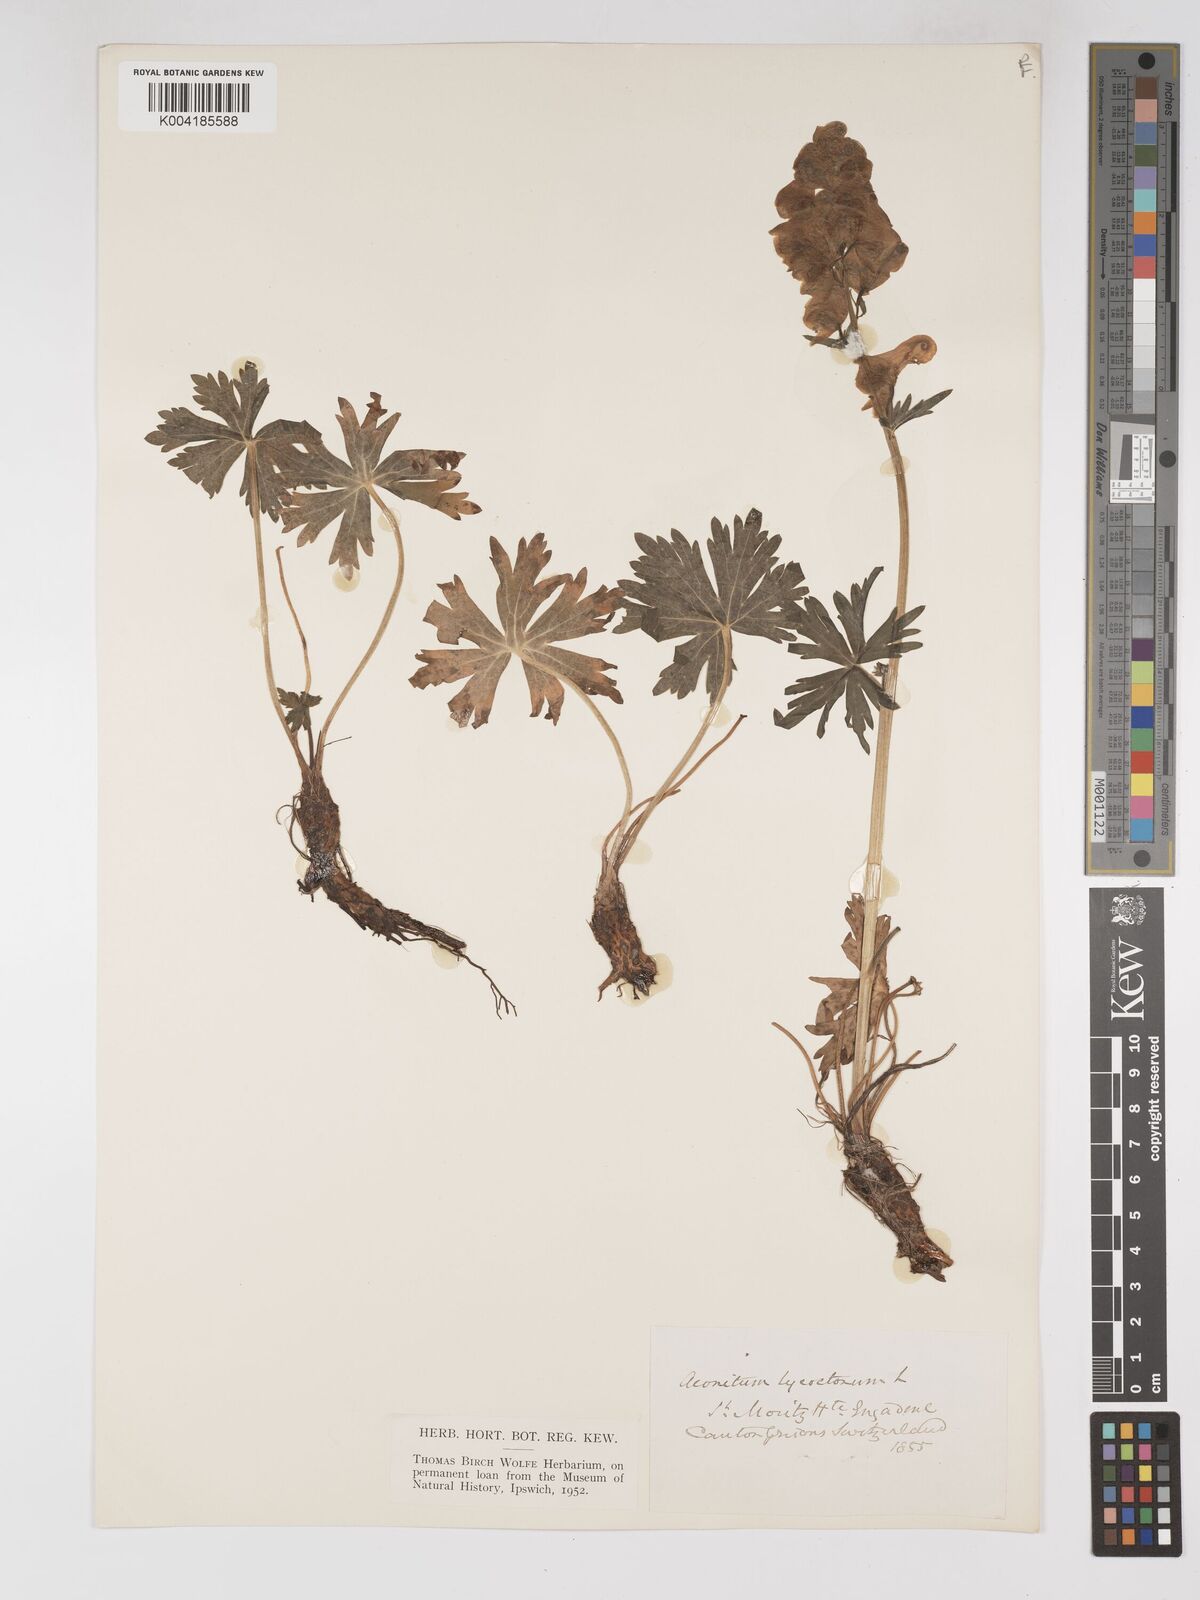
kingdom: Plantae
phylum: Tracheophyta
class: Magnoliopsida
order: Ranunculales
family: Ranunculaceae
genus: Aconitum
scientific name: Aconitum lycoctonum
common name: Wolf's-bane
